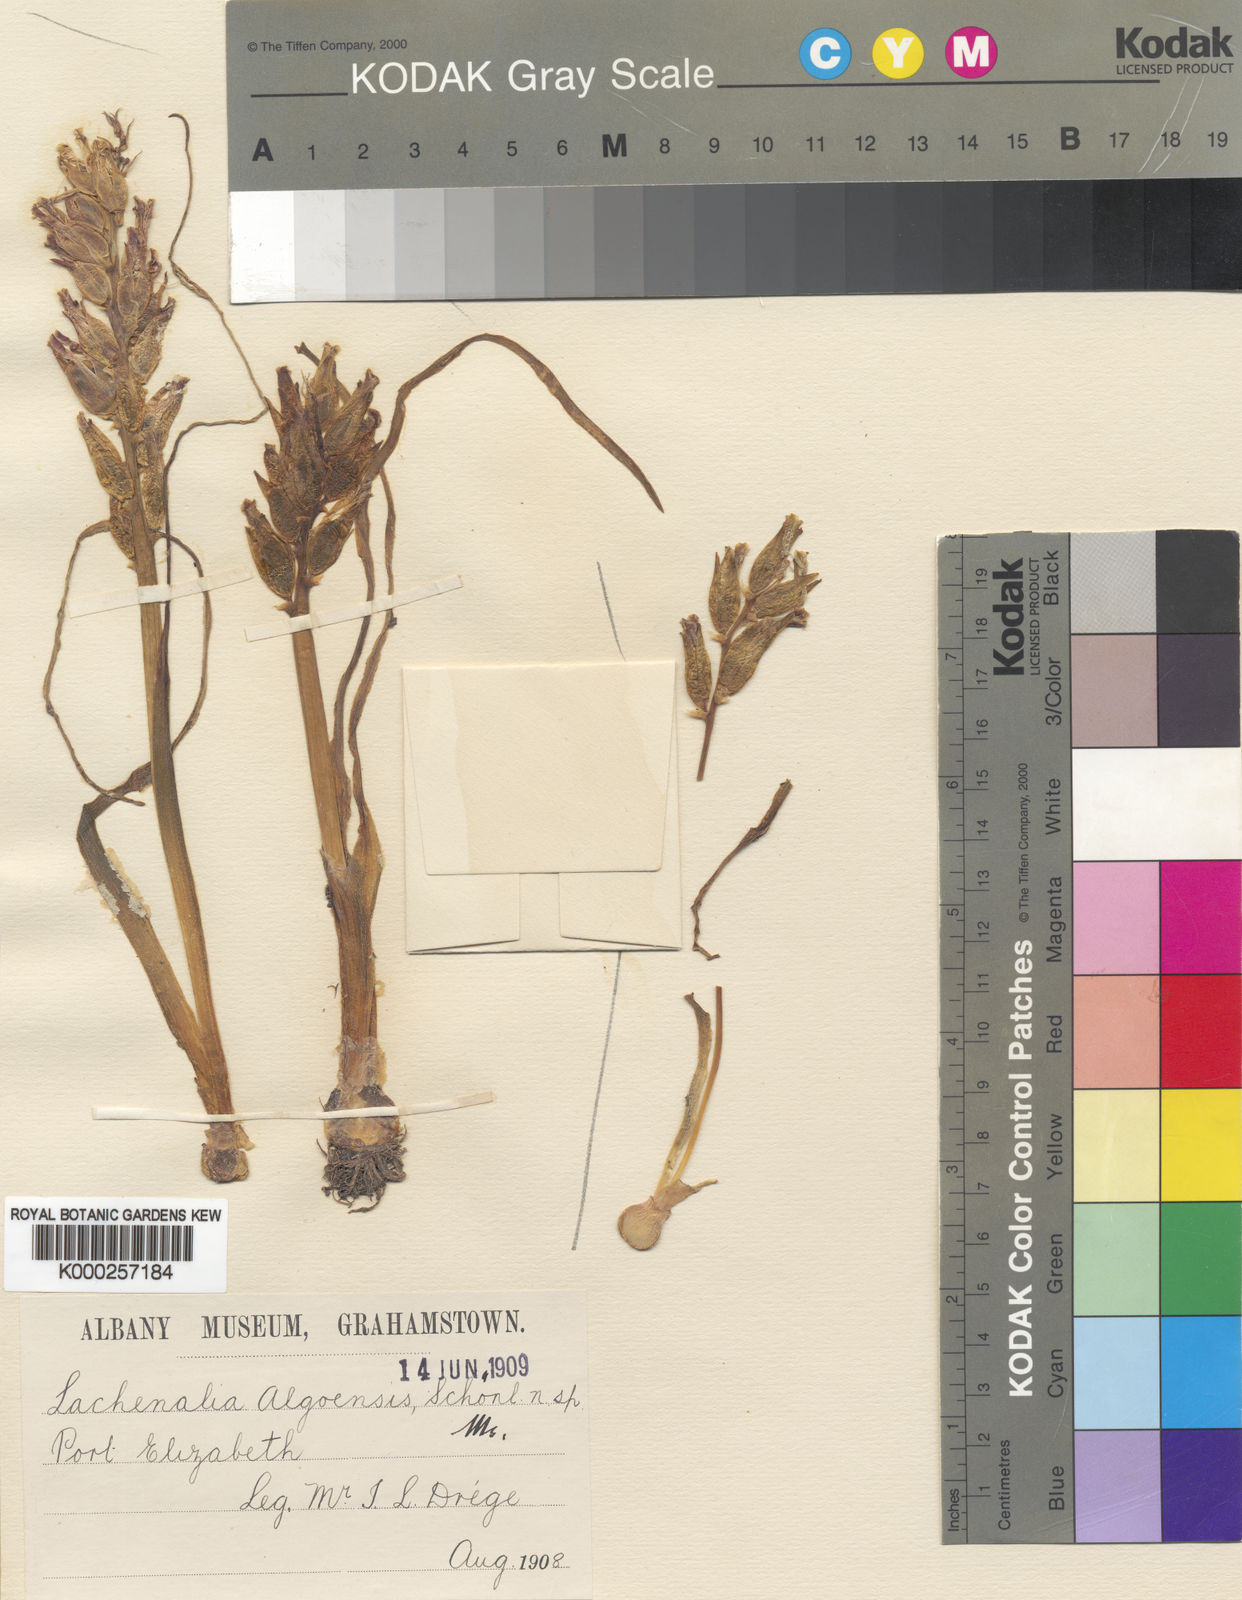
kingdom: Plantae
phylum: Tracheophyta
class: Liliopsida
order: Asparagales
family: Asparagaceae
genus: Lachenalia
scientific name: Lachenalia
